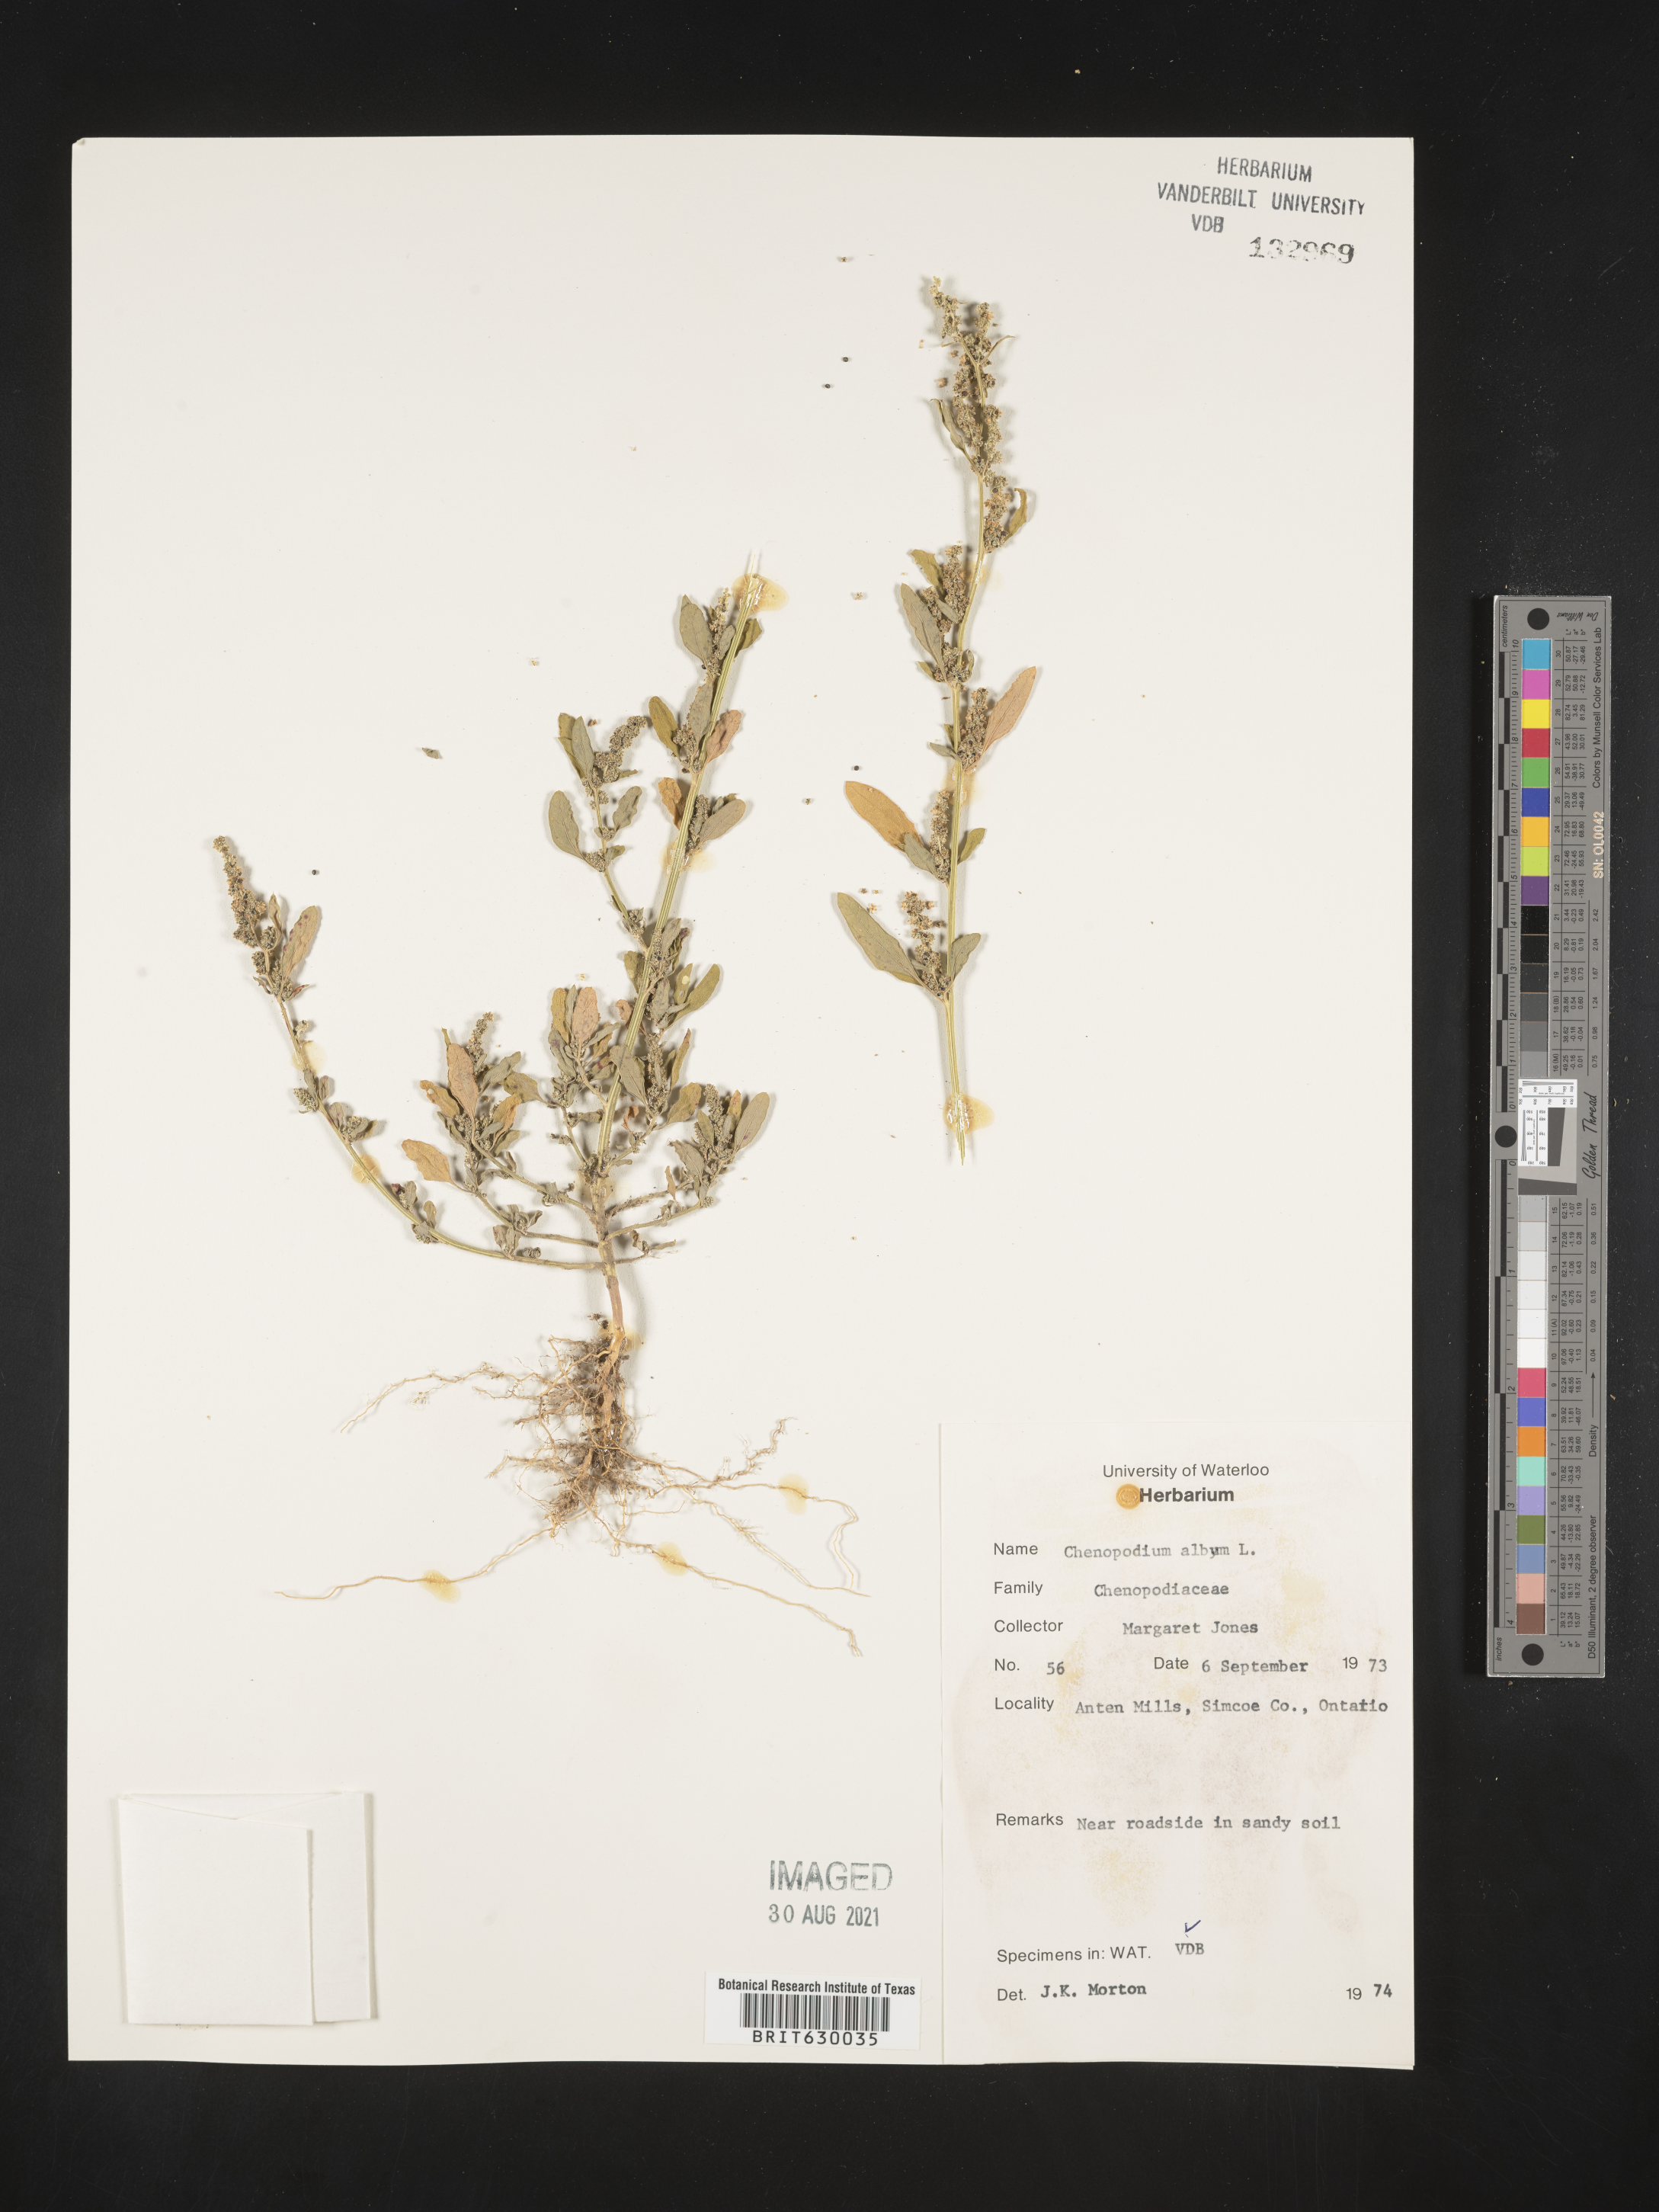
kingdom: Plantae
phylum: Tracheophyta
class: Magnoliopsida
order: Caryophyllales
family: Amaranthaceae
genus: Chenopodium
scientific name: Chenopodium album
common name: Fat-hen
